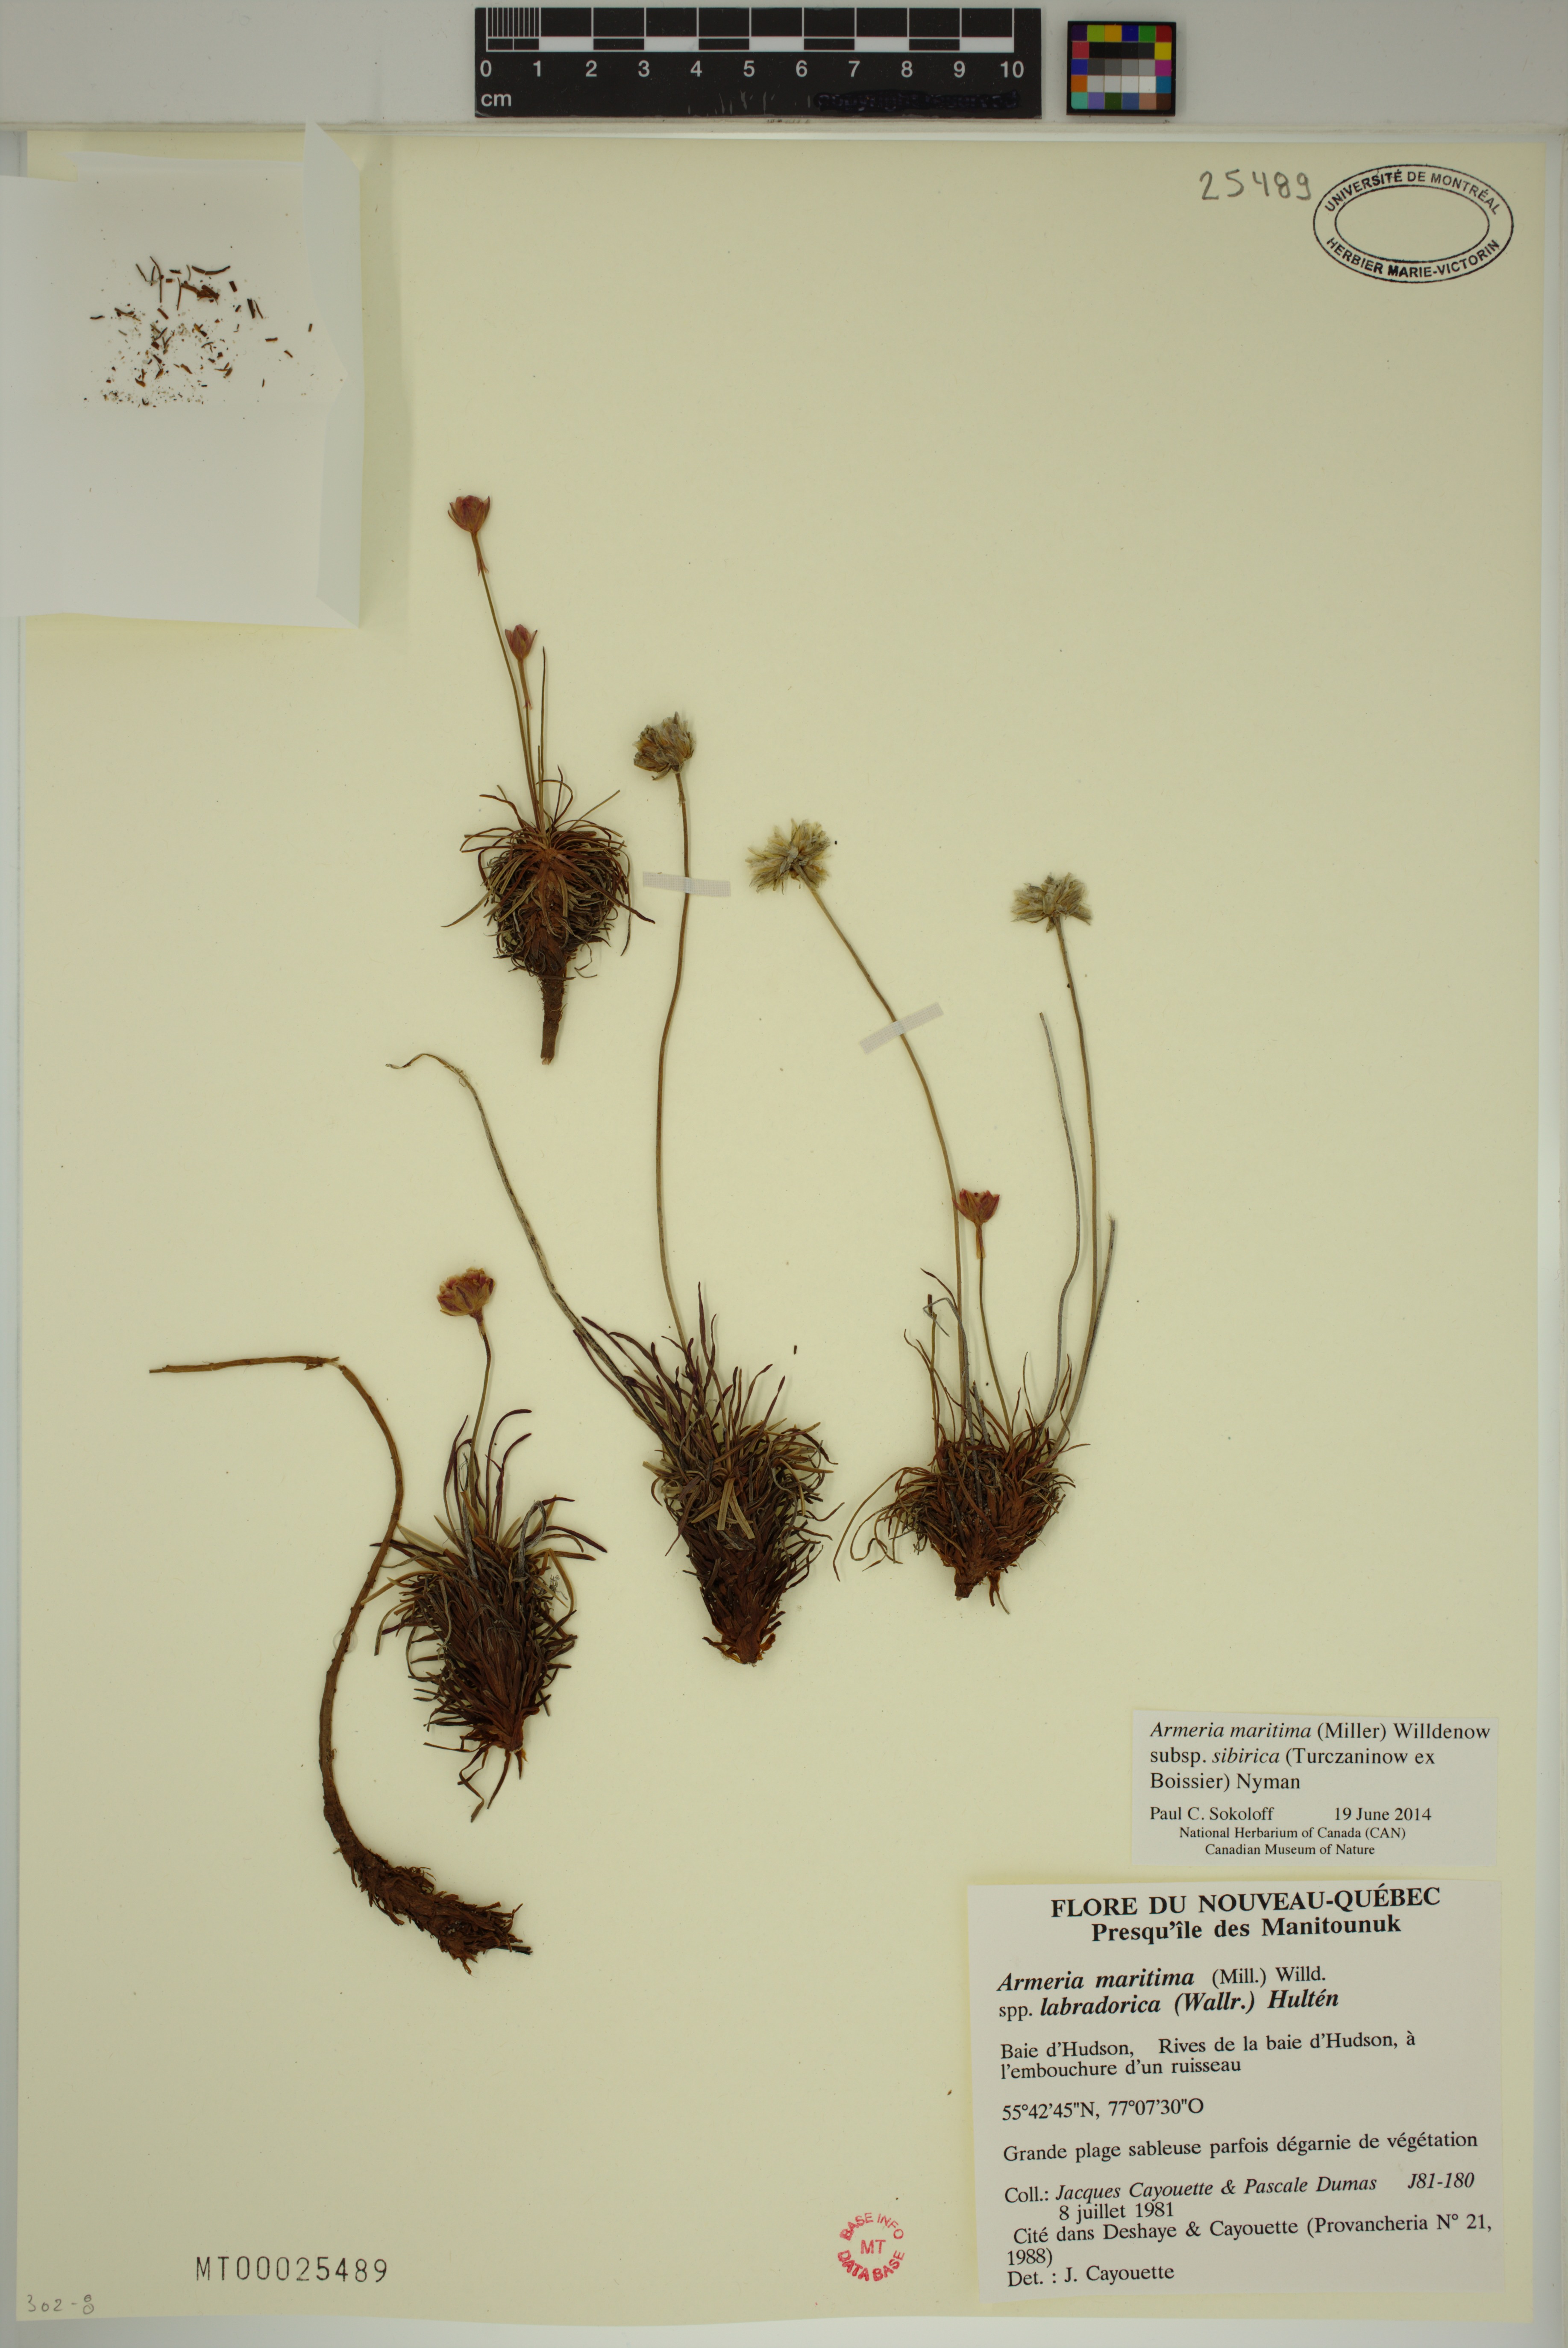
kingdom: Plantae
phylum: Tracheophyta
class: Magnoliopsida
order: Caryophyllales
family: Plumbaginaceae
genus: Armeria
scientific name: Armeria maritima
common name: Thrift
